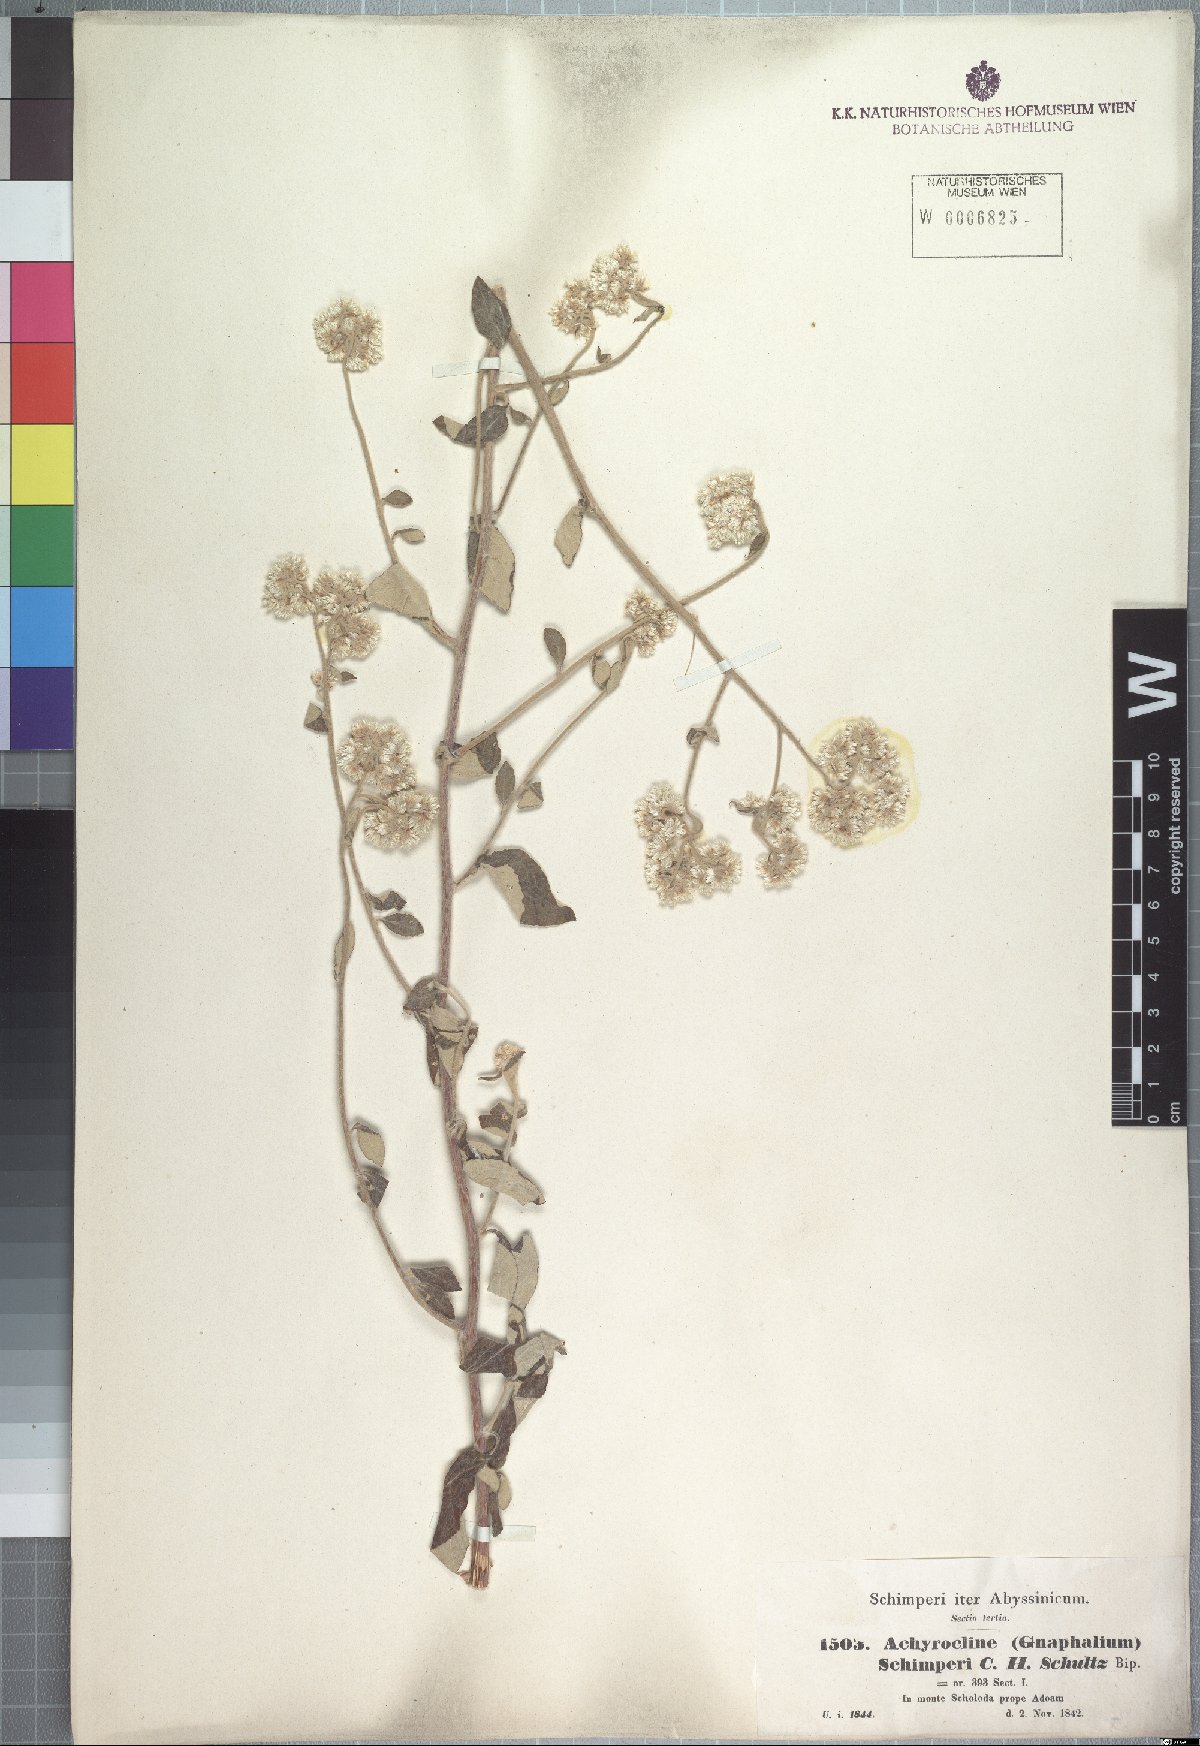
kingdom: Plantae
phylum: Tracheophyta
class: Magnoliopsida
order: Asterales
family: Asteraceae
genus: Helichrysum
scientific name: Helichrysum schimperi
